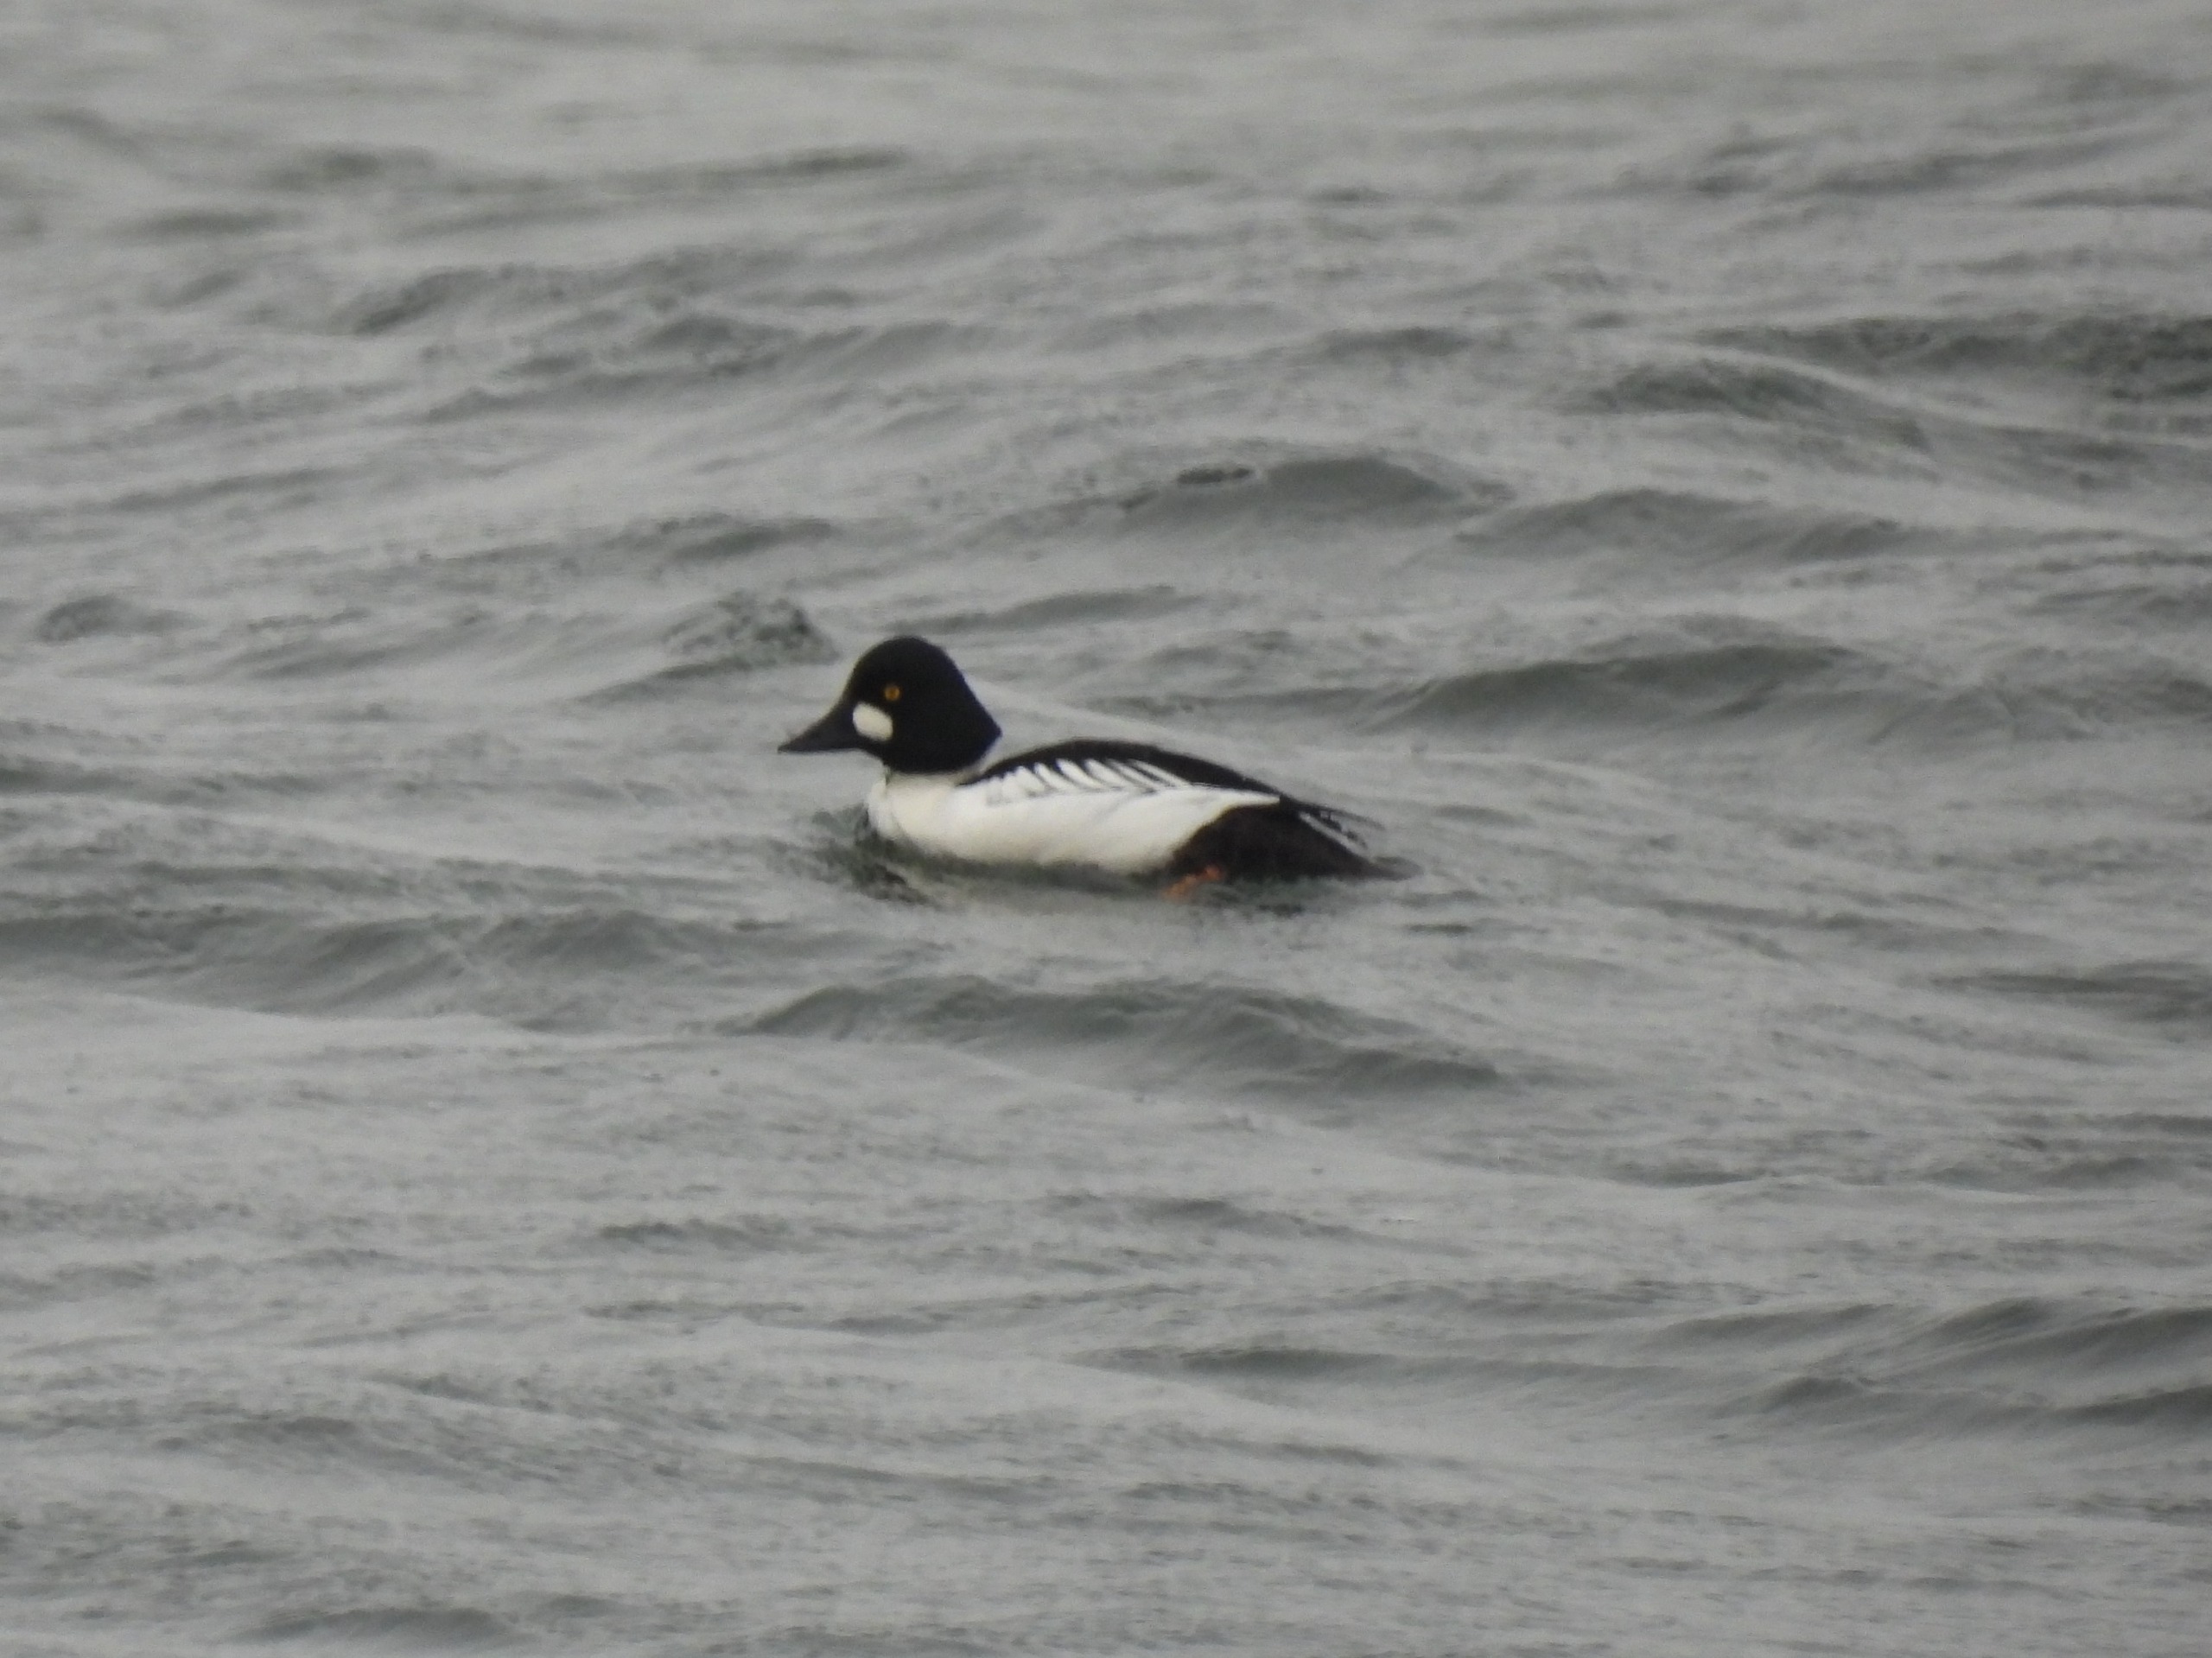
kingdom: Animalia
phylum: Chordata
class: Aves
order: Anseriformes
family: Anatidae
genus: Bucephala
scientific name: Bucephala clangula
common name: Hvinand
